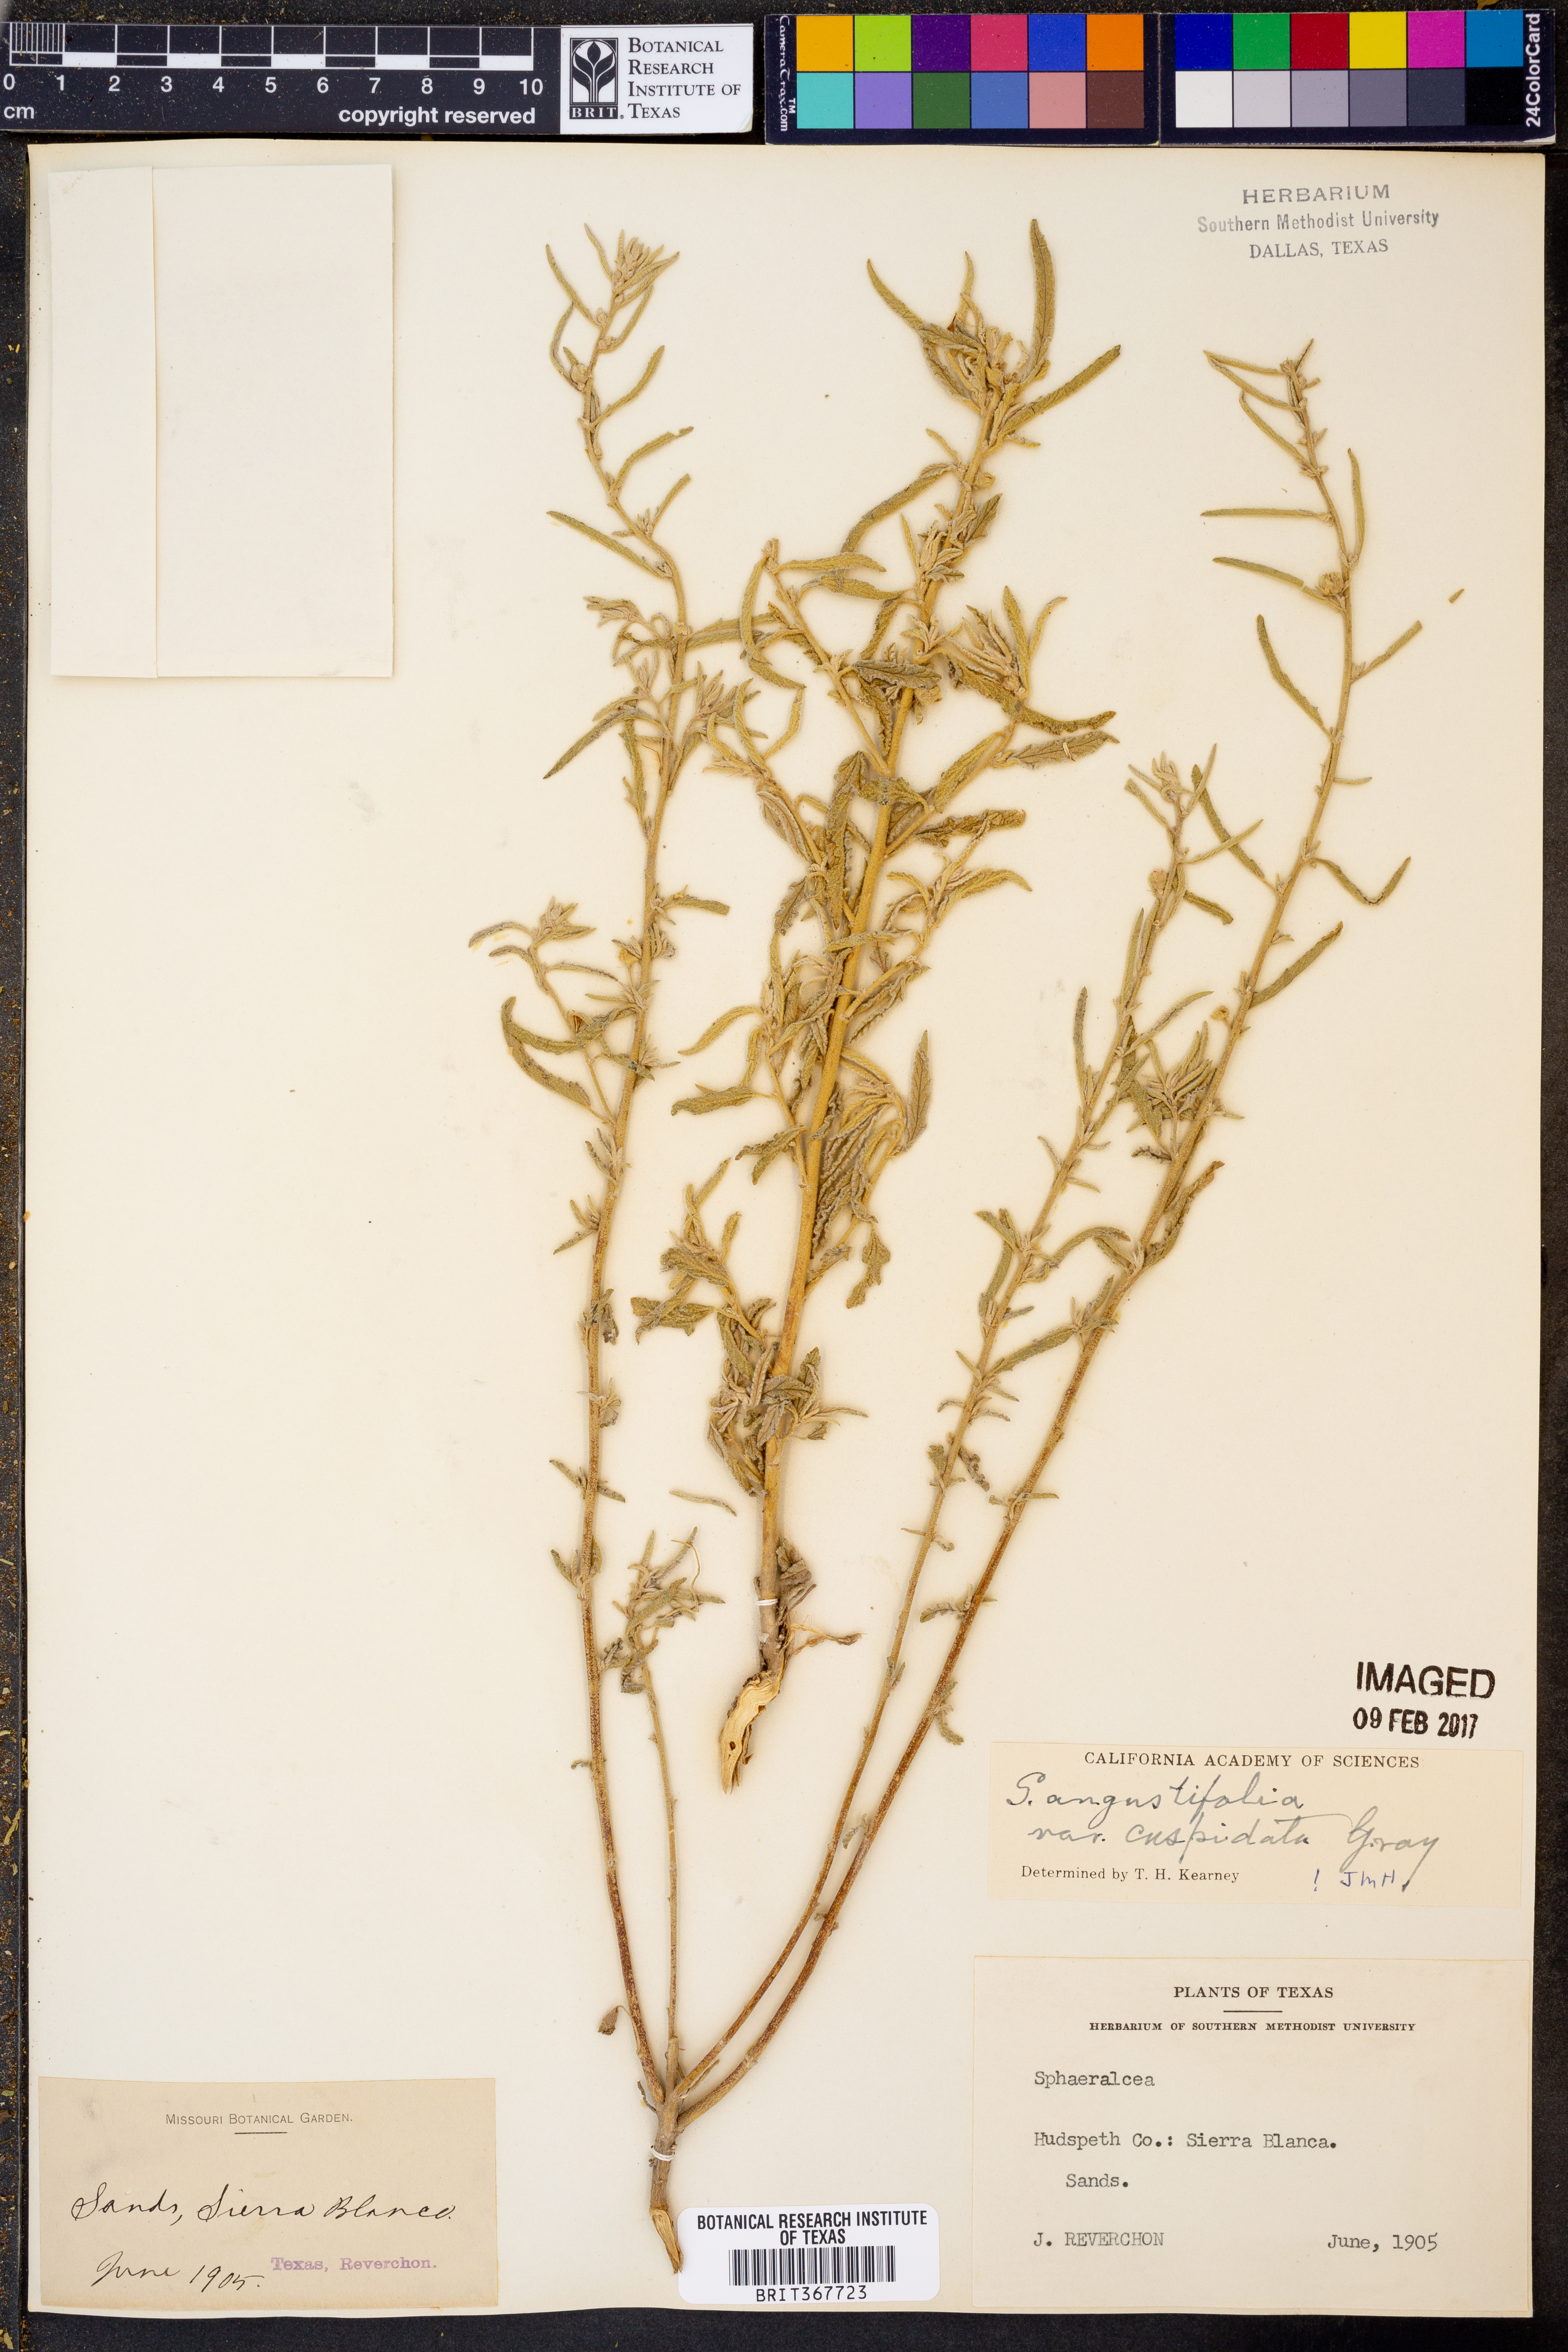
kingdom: Plantae
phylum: Tracheophyta
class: Magnoliopsida
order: Malvales
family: Malvaceae
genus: Sphaeralcea
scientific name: Sphaeralcea angustifolia
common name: Copper globe-mallow
